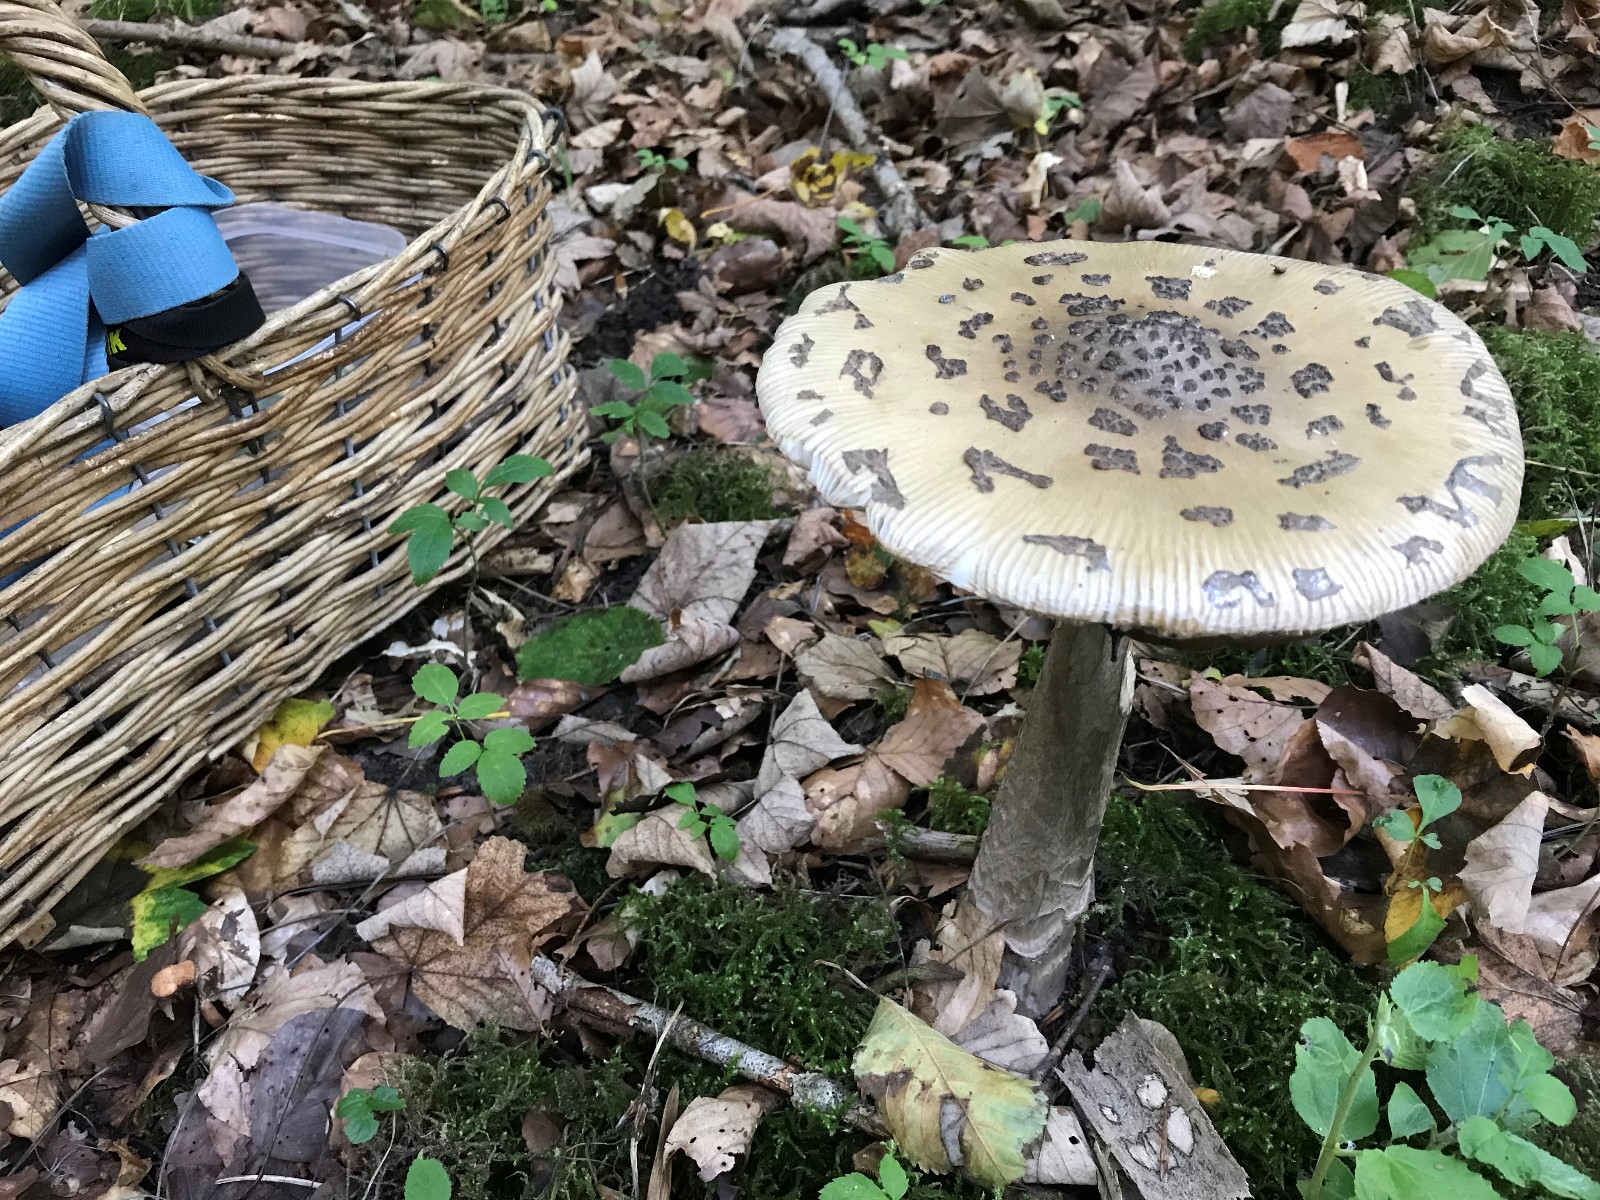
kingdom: Fungi
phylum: Basidiomycota
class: Agaricomycetes
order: Agaricales
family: Amanitaceae
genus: Amanita
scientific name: Amanita ceciliae
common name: stor kam-fluesvamp
